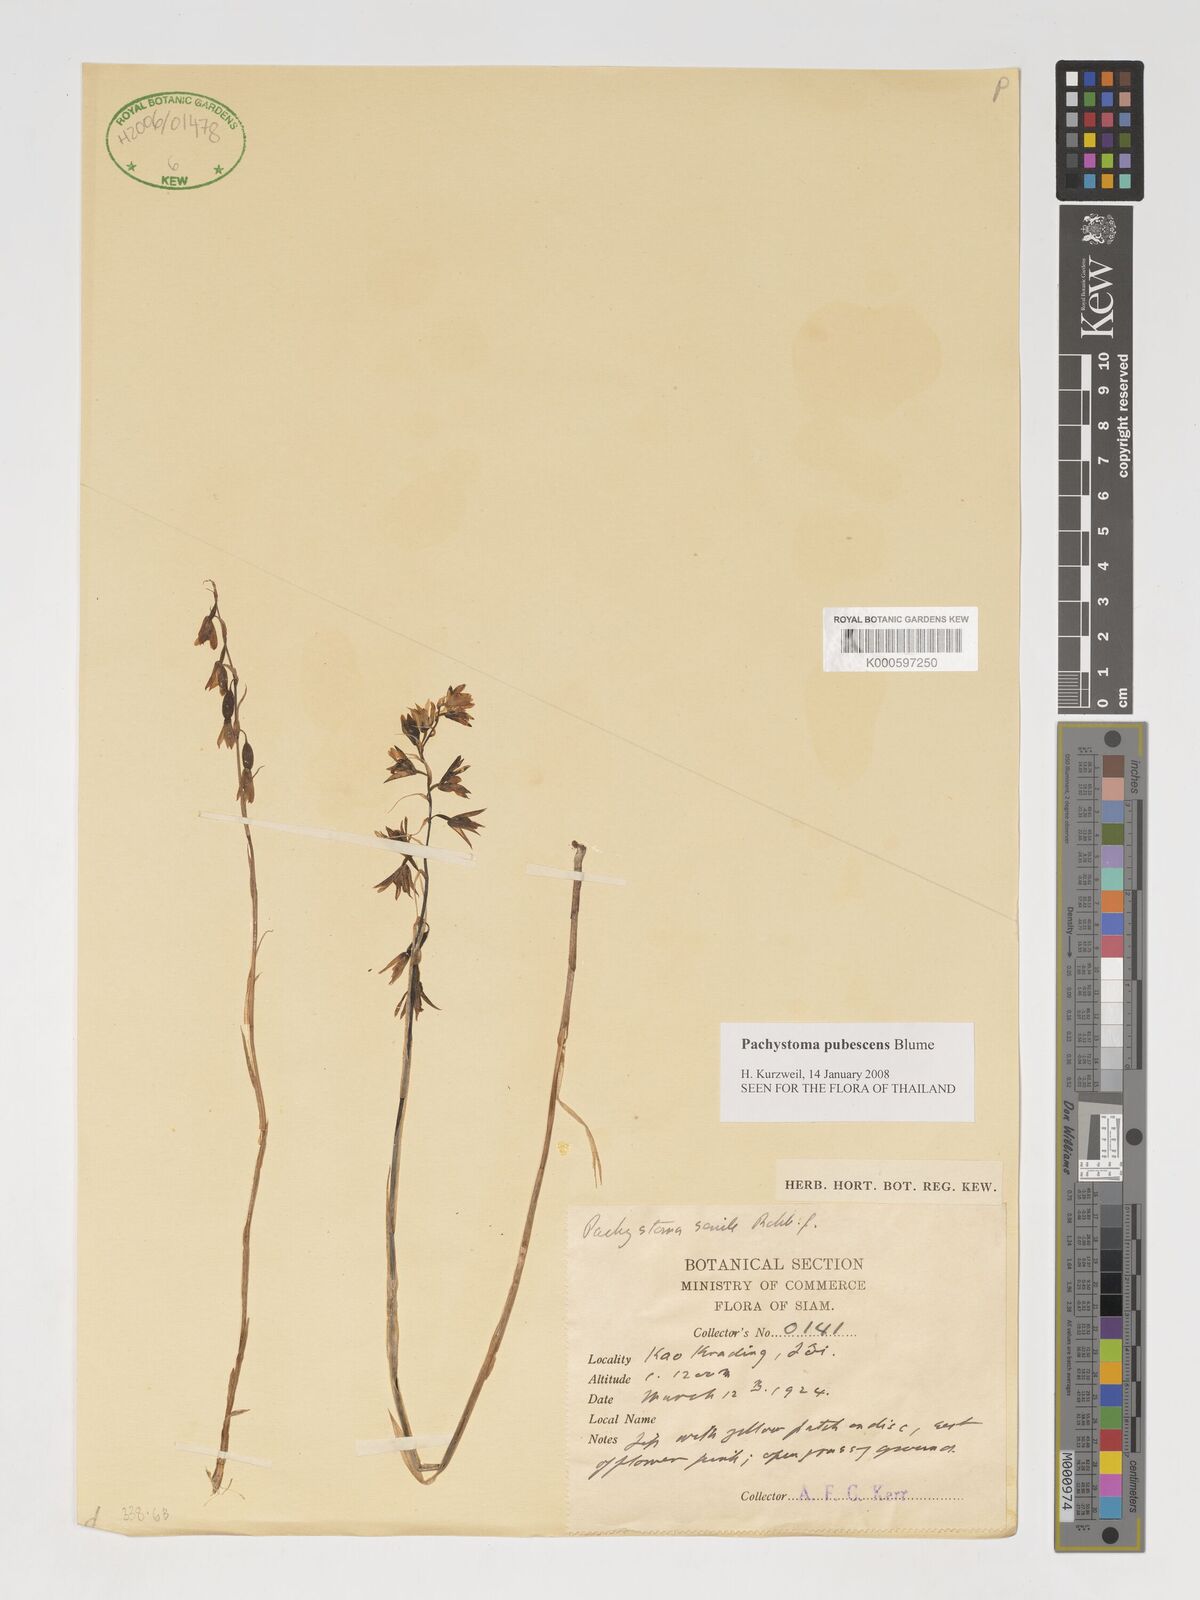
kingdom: Plantae
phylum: Tracheophyta
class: Liliopsida
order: Asparagales
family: Orchidaceae
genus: Pachystoma
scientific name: Pachystoma pubescens
